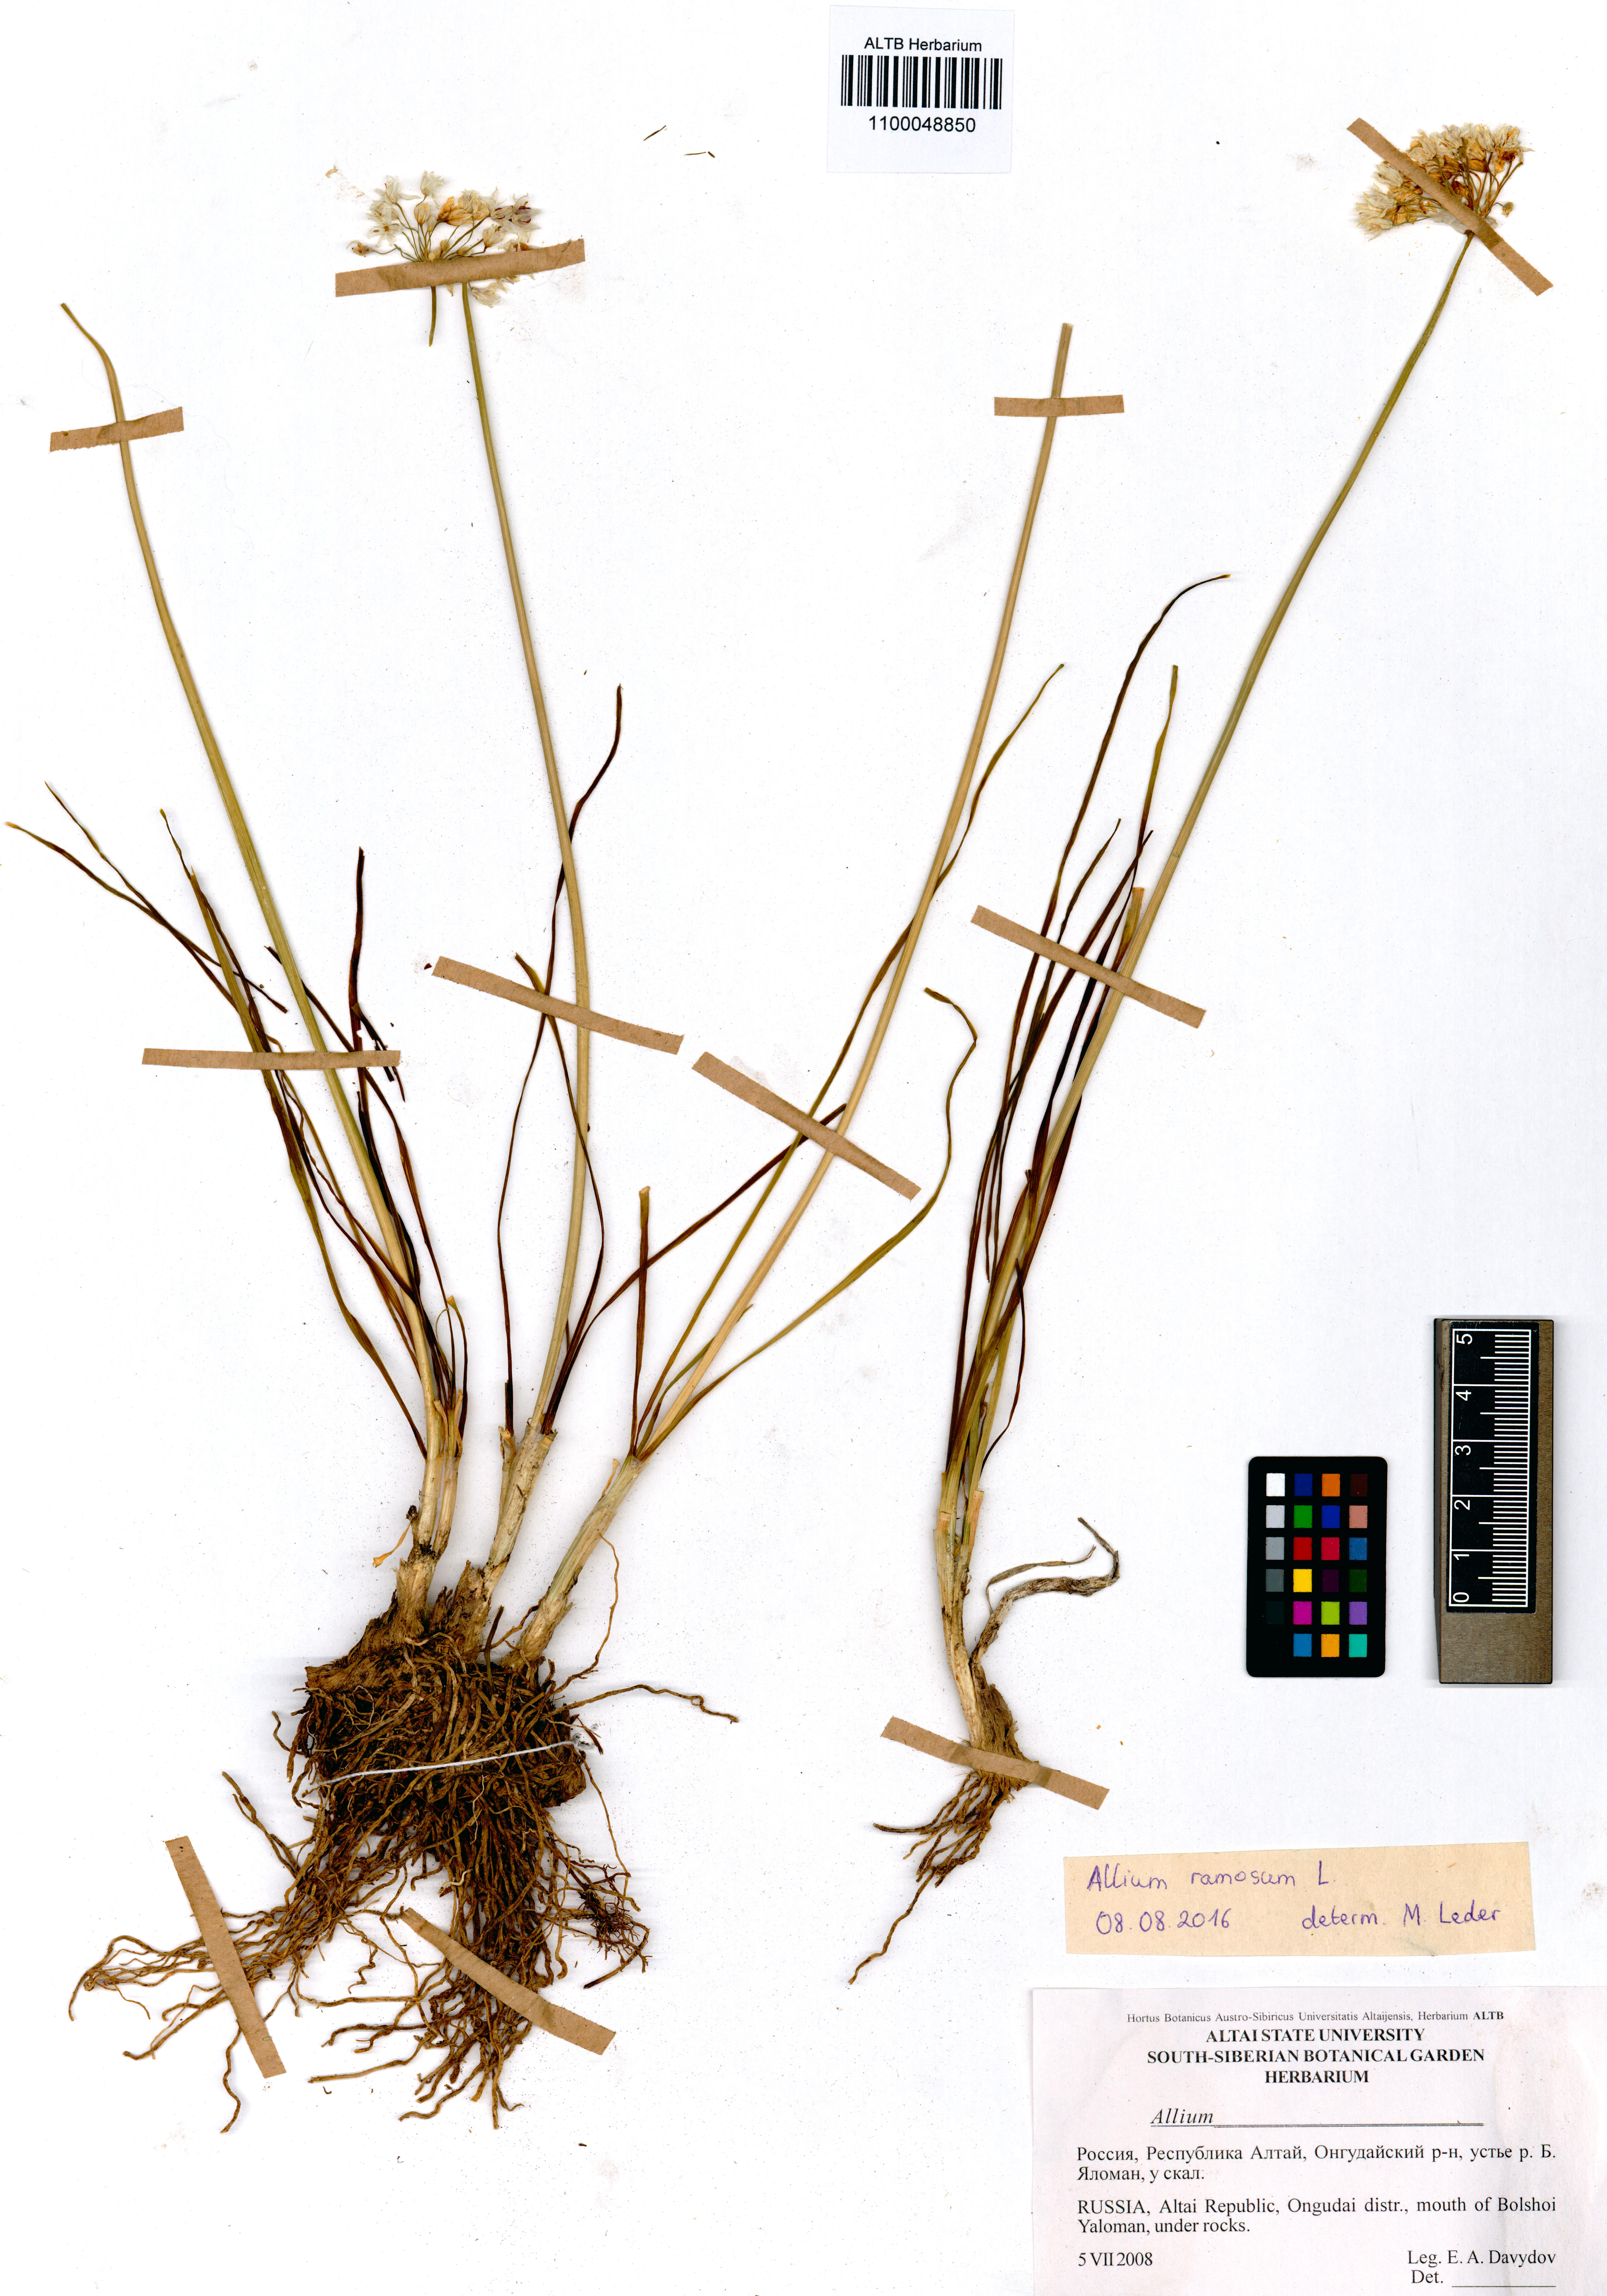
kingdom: Plantae
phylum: Tracheophyta
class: Liliopsida
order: Asparagales
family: Amaryllidaceae
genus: Allium
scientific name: Allium ramosum
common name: Fragrant garlic
